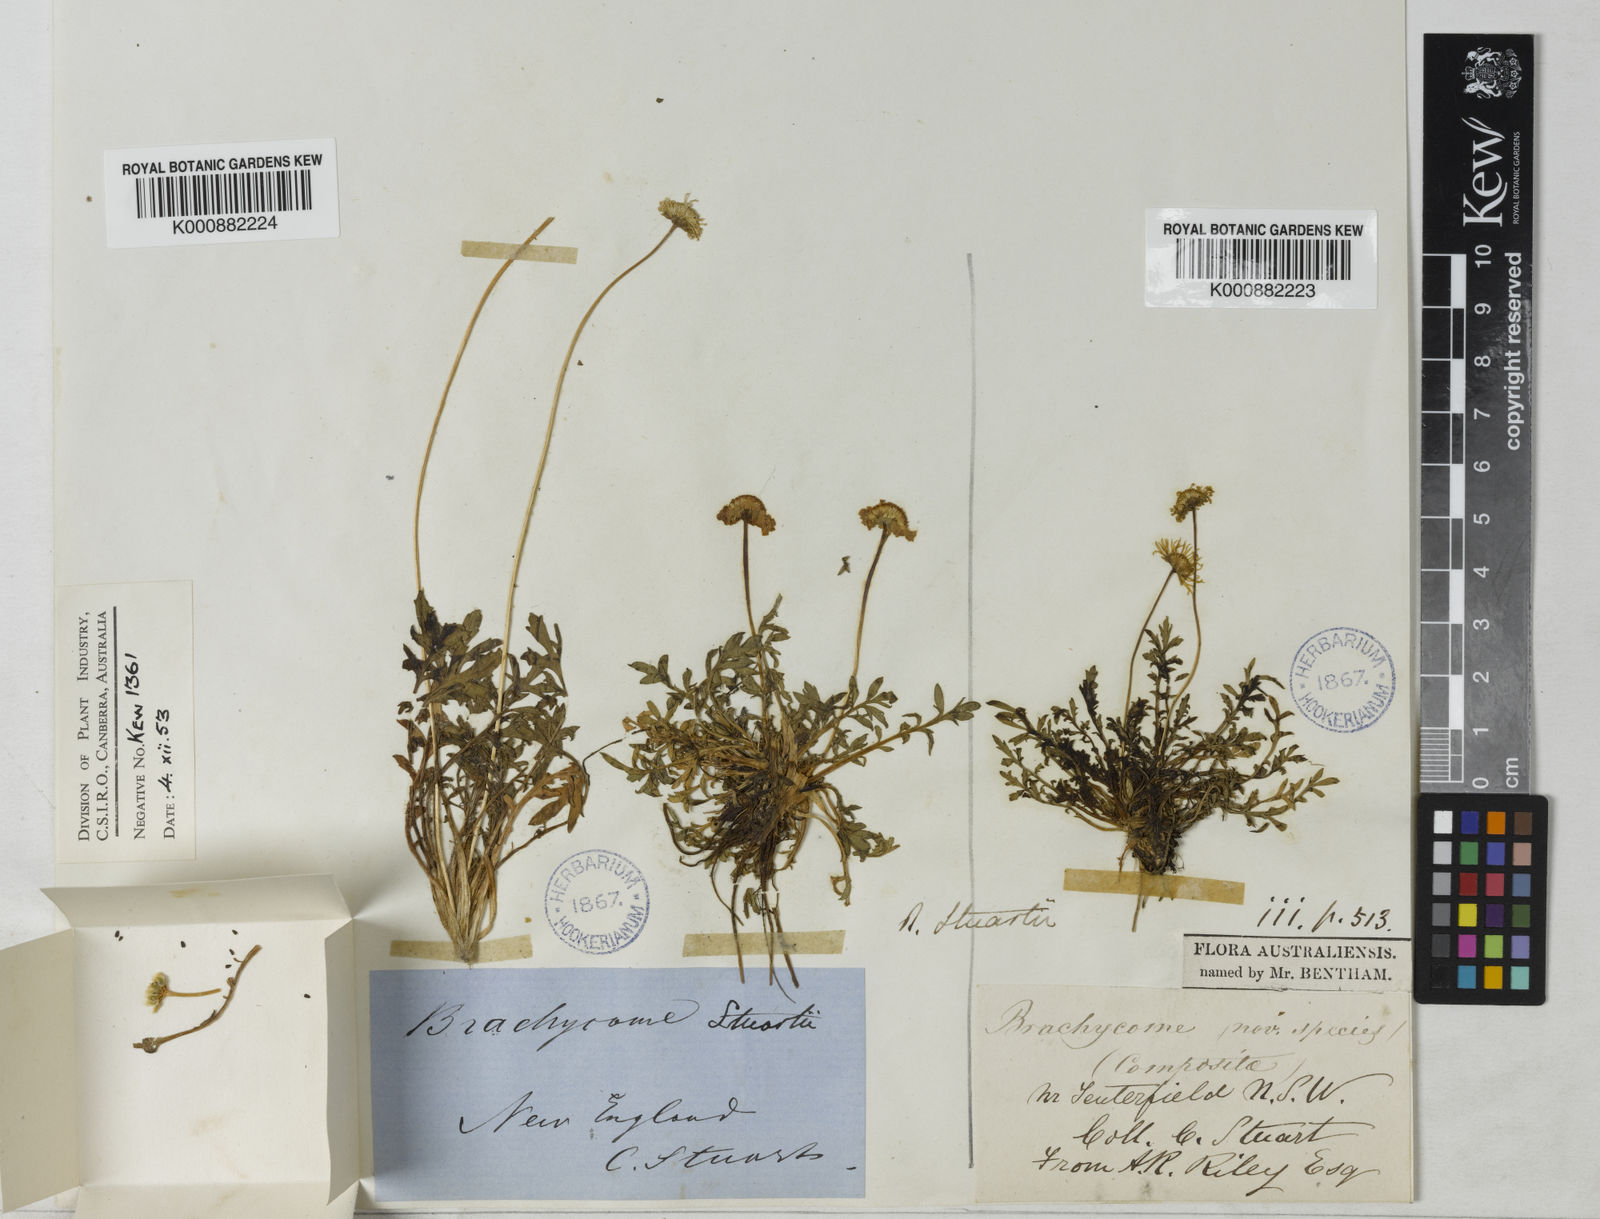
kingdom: Plantae
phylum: Tracheophyta
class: Magnoliopsida
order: Asterales
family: Asteraceae
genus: Brachyscome
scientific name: Brachyscome stuartii
